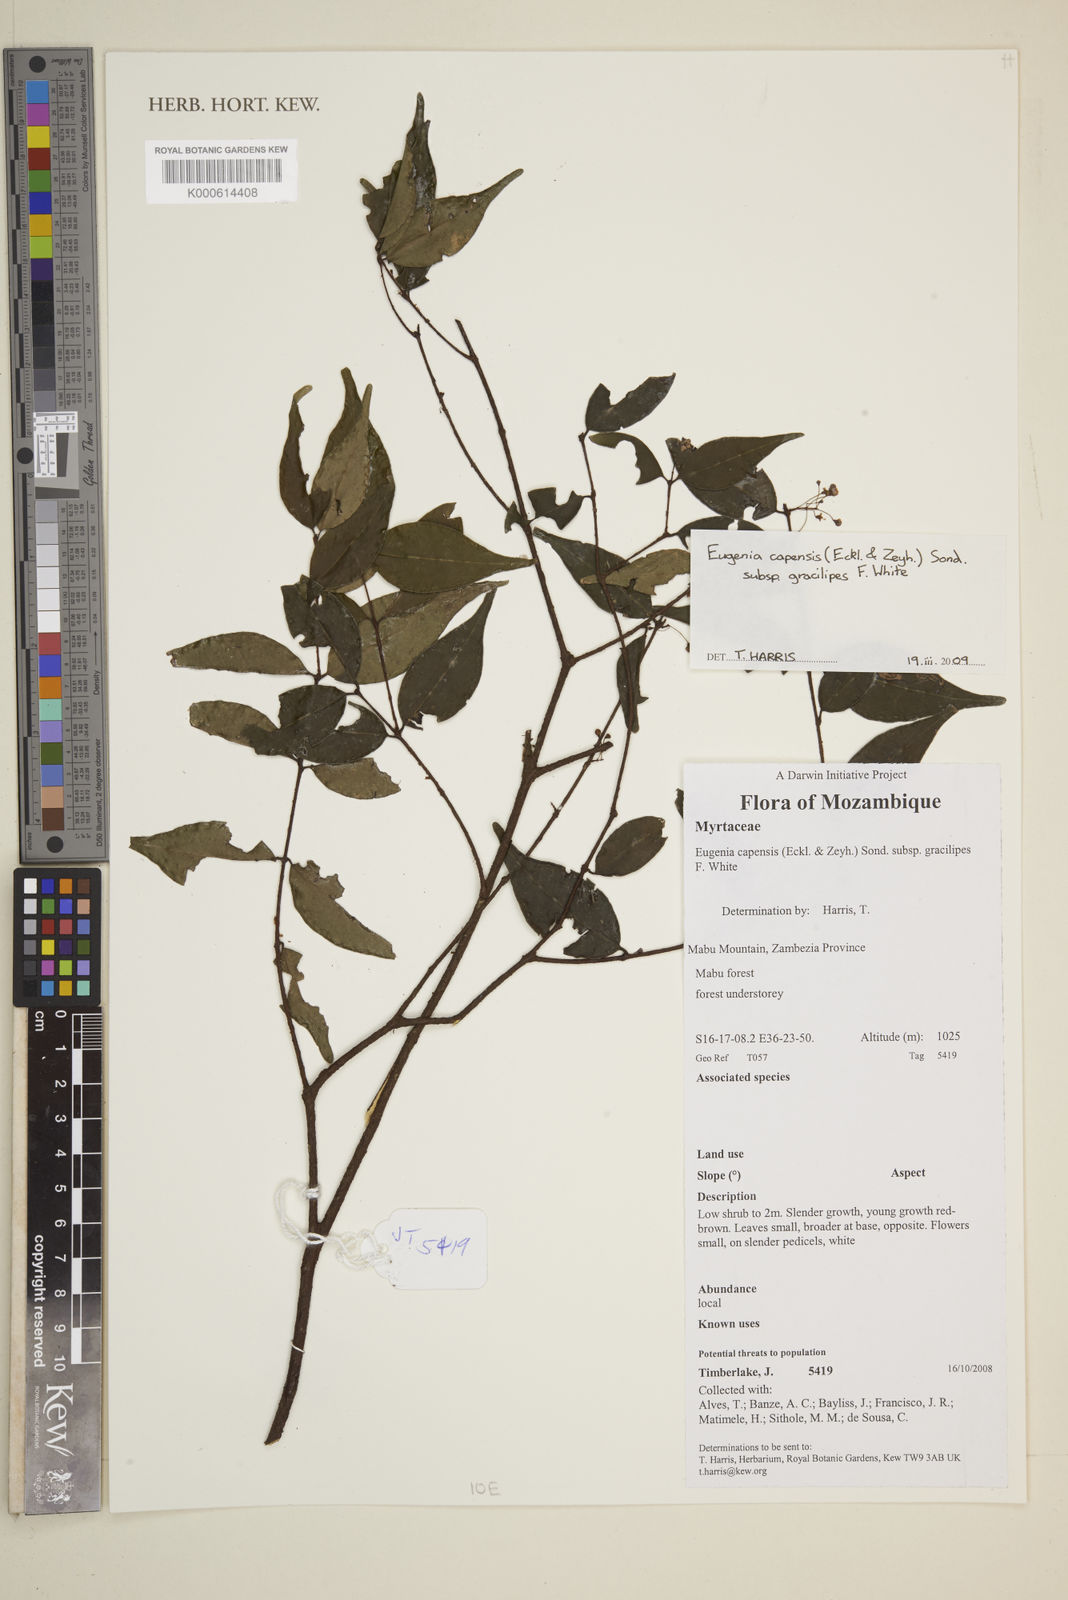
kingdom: Plantae
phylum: Tracheophyta
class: Magnoliopsida
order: Myrtales
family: Myrtaceae
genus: Eugenia
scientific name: Eugenia capensis
